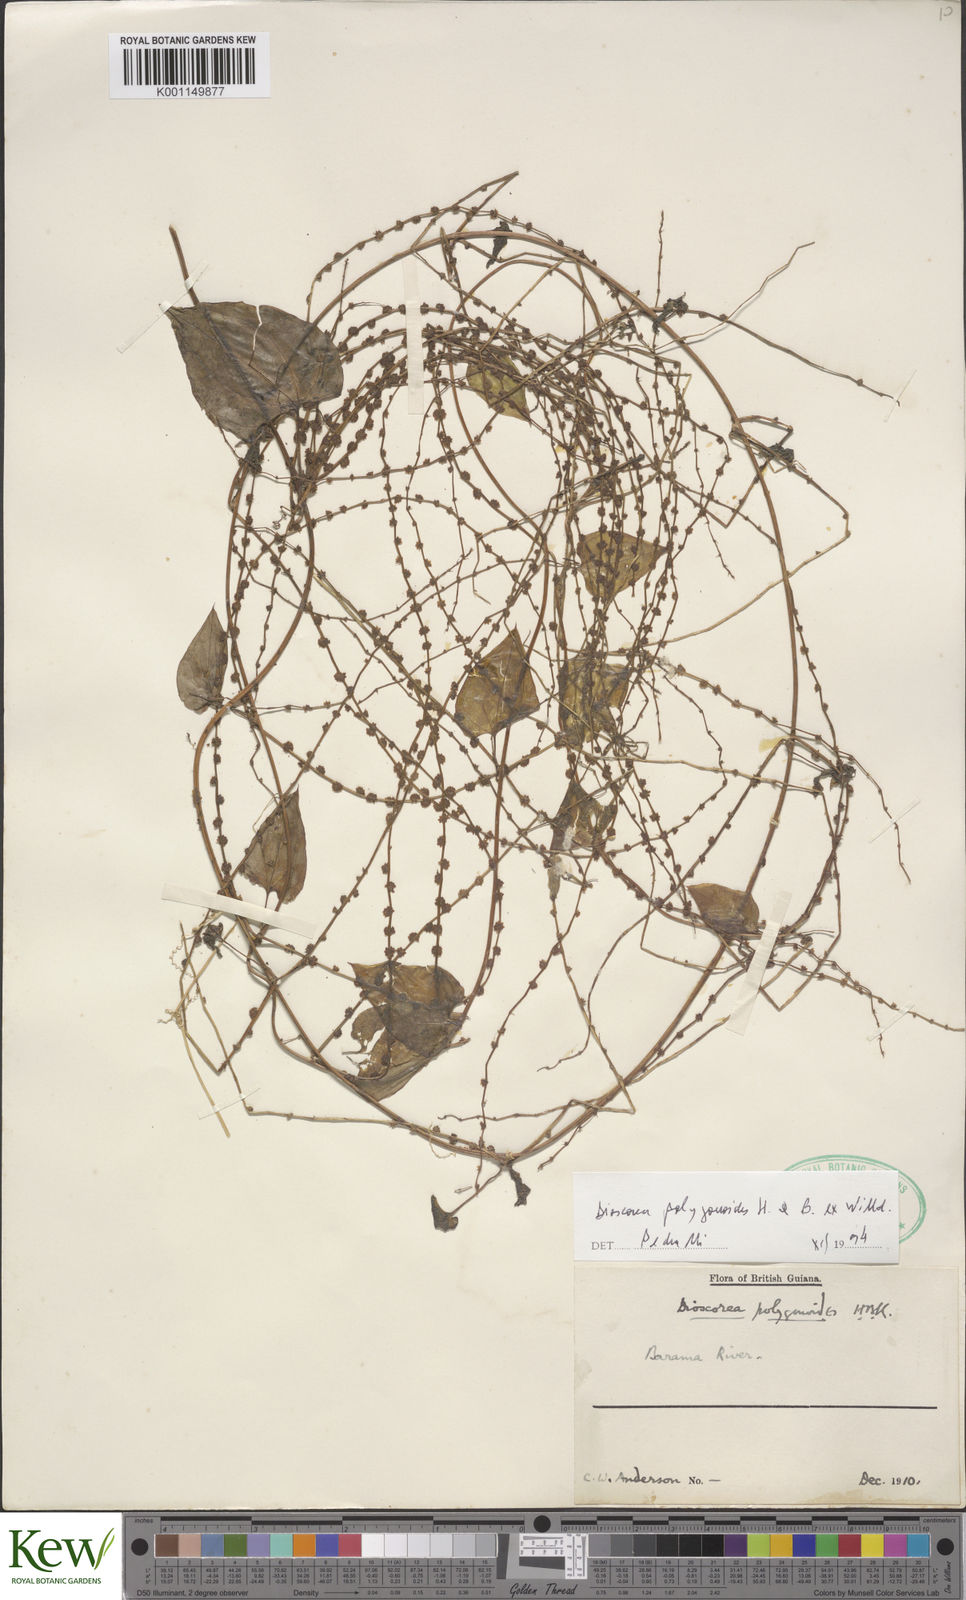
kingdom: Plantae
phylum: Tracheophyta
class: Liliopsida
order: Dioscoreales
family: Dioscoreaceae
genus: Dioscorea
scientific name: Dioscorea polygonoides
